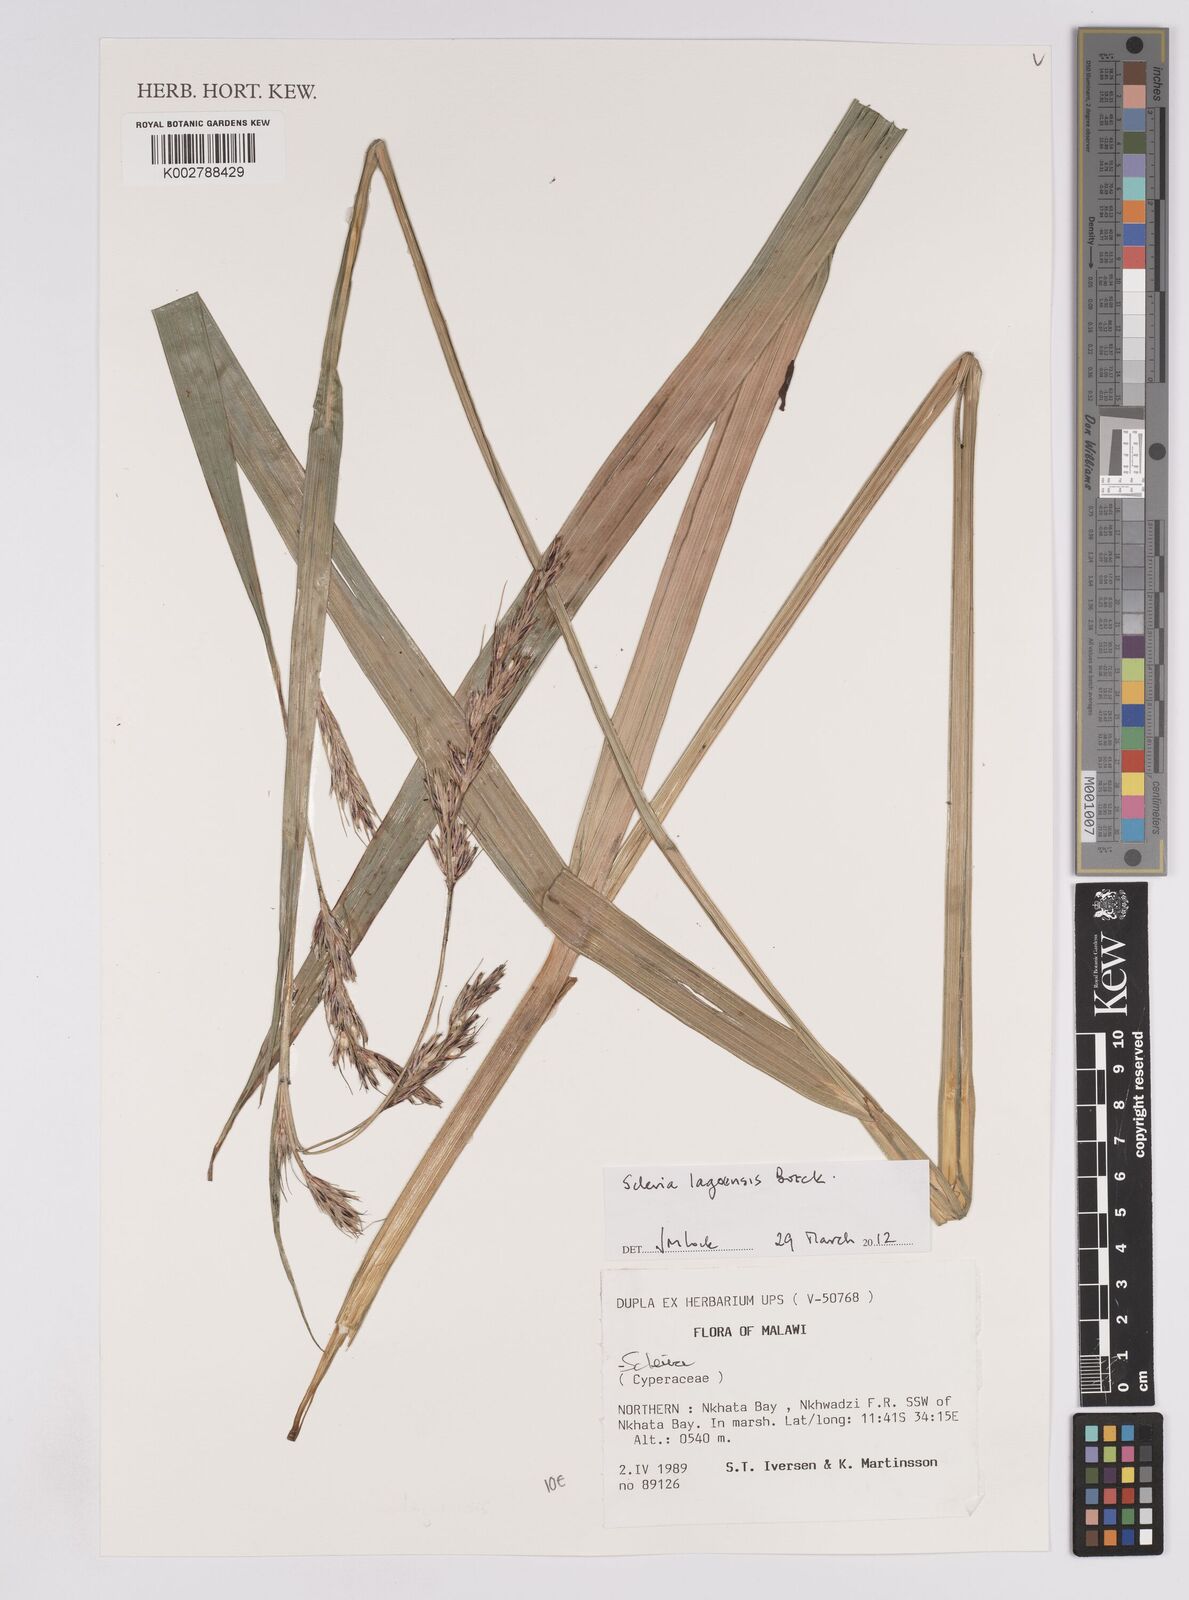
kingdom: Plantae
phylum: Tracheophyta
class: Liliopsida
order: Poales
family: Cyperaceae
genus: Scleria
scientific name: Scleria lagoensis
